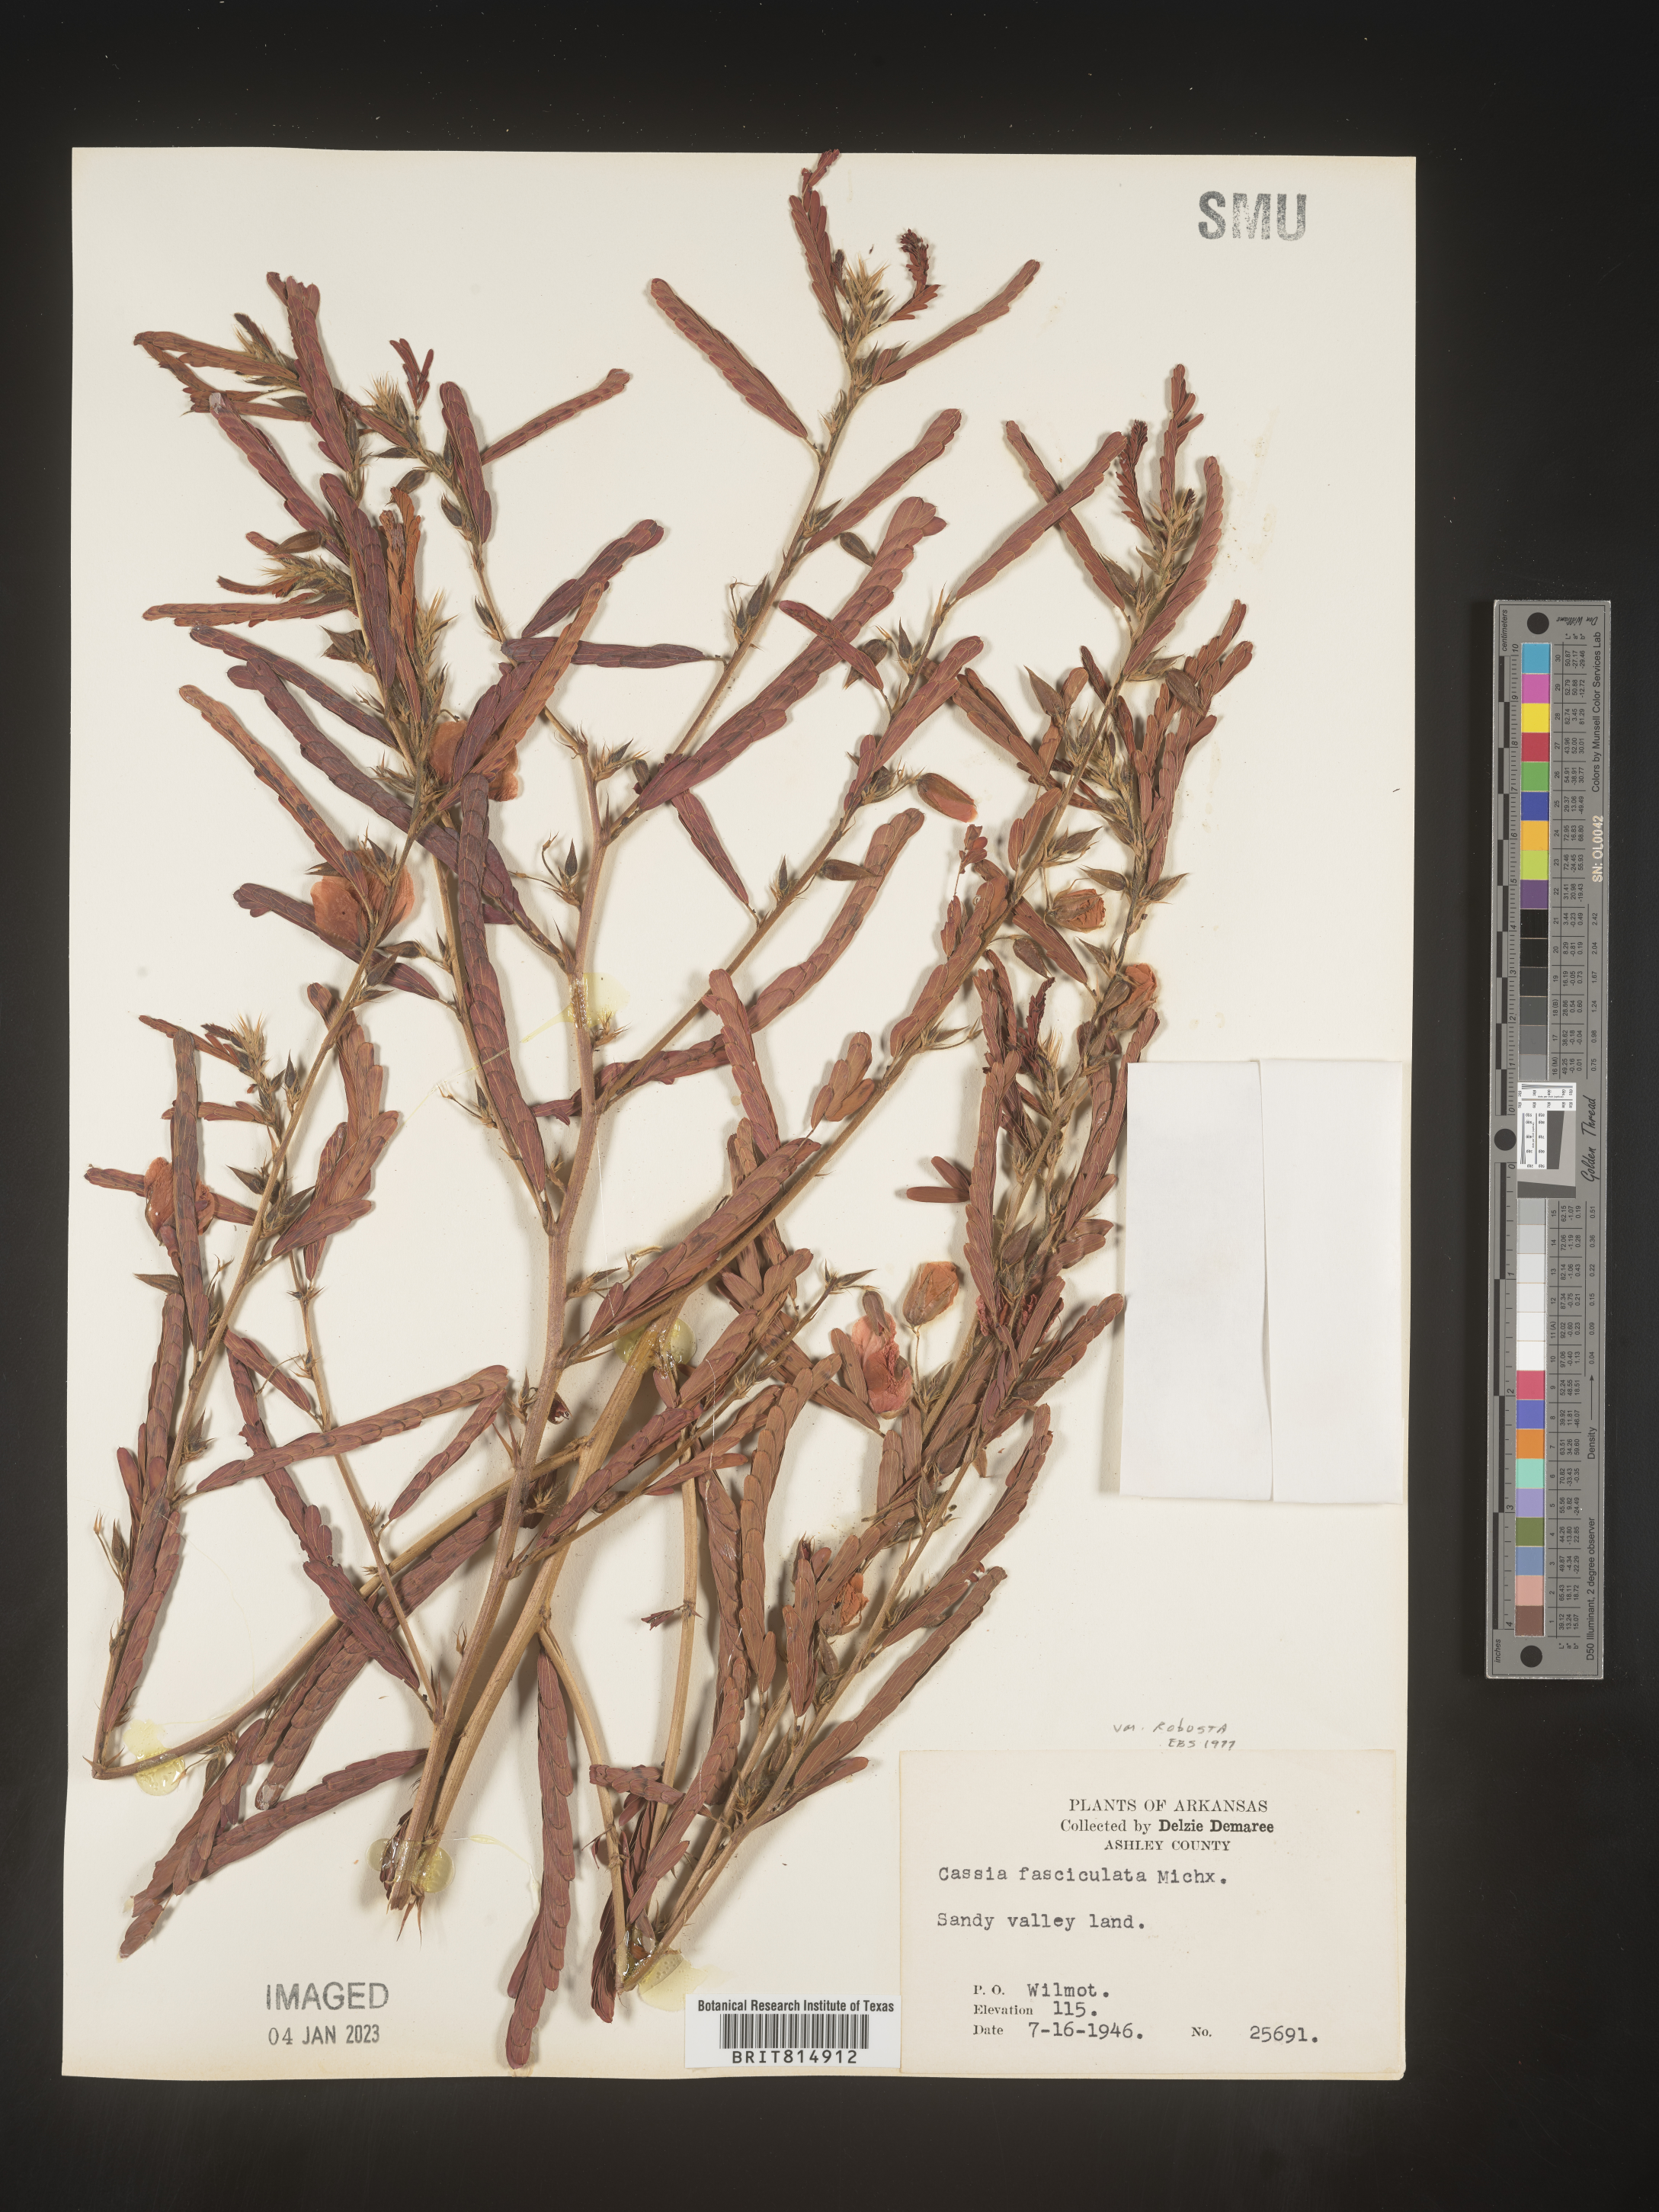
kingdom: Plantae
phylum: Tracheophyta
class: Magnoliopsida
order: Fabales
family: Fabaceae
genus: Chamaecrista
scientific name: Chamaecrista fasciculata
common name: Golden cassia
